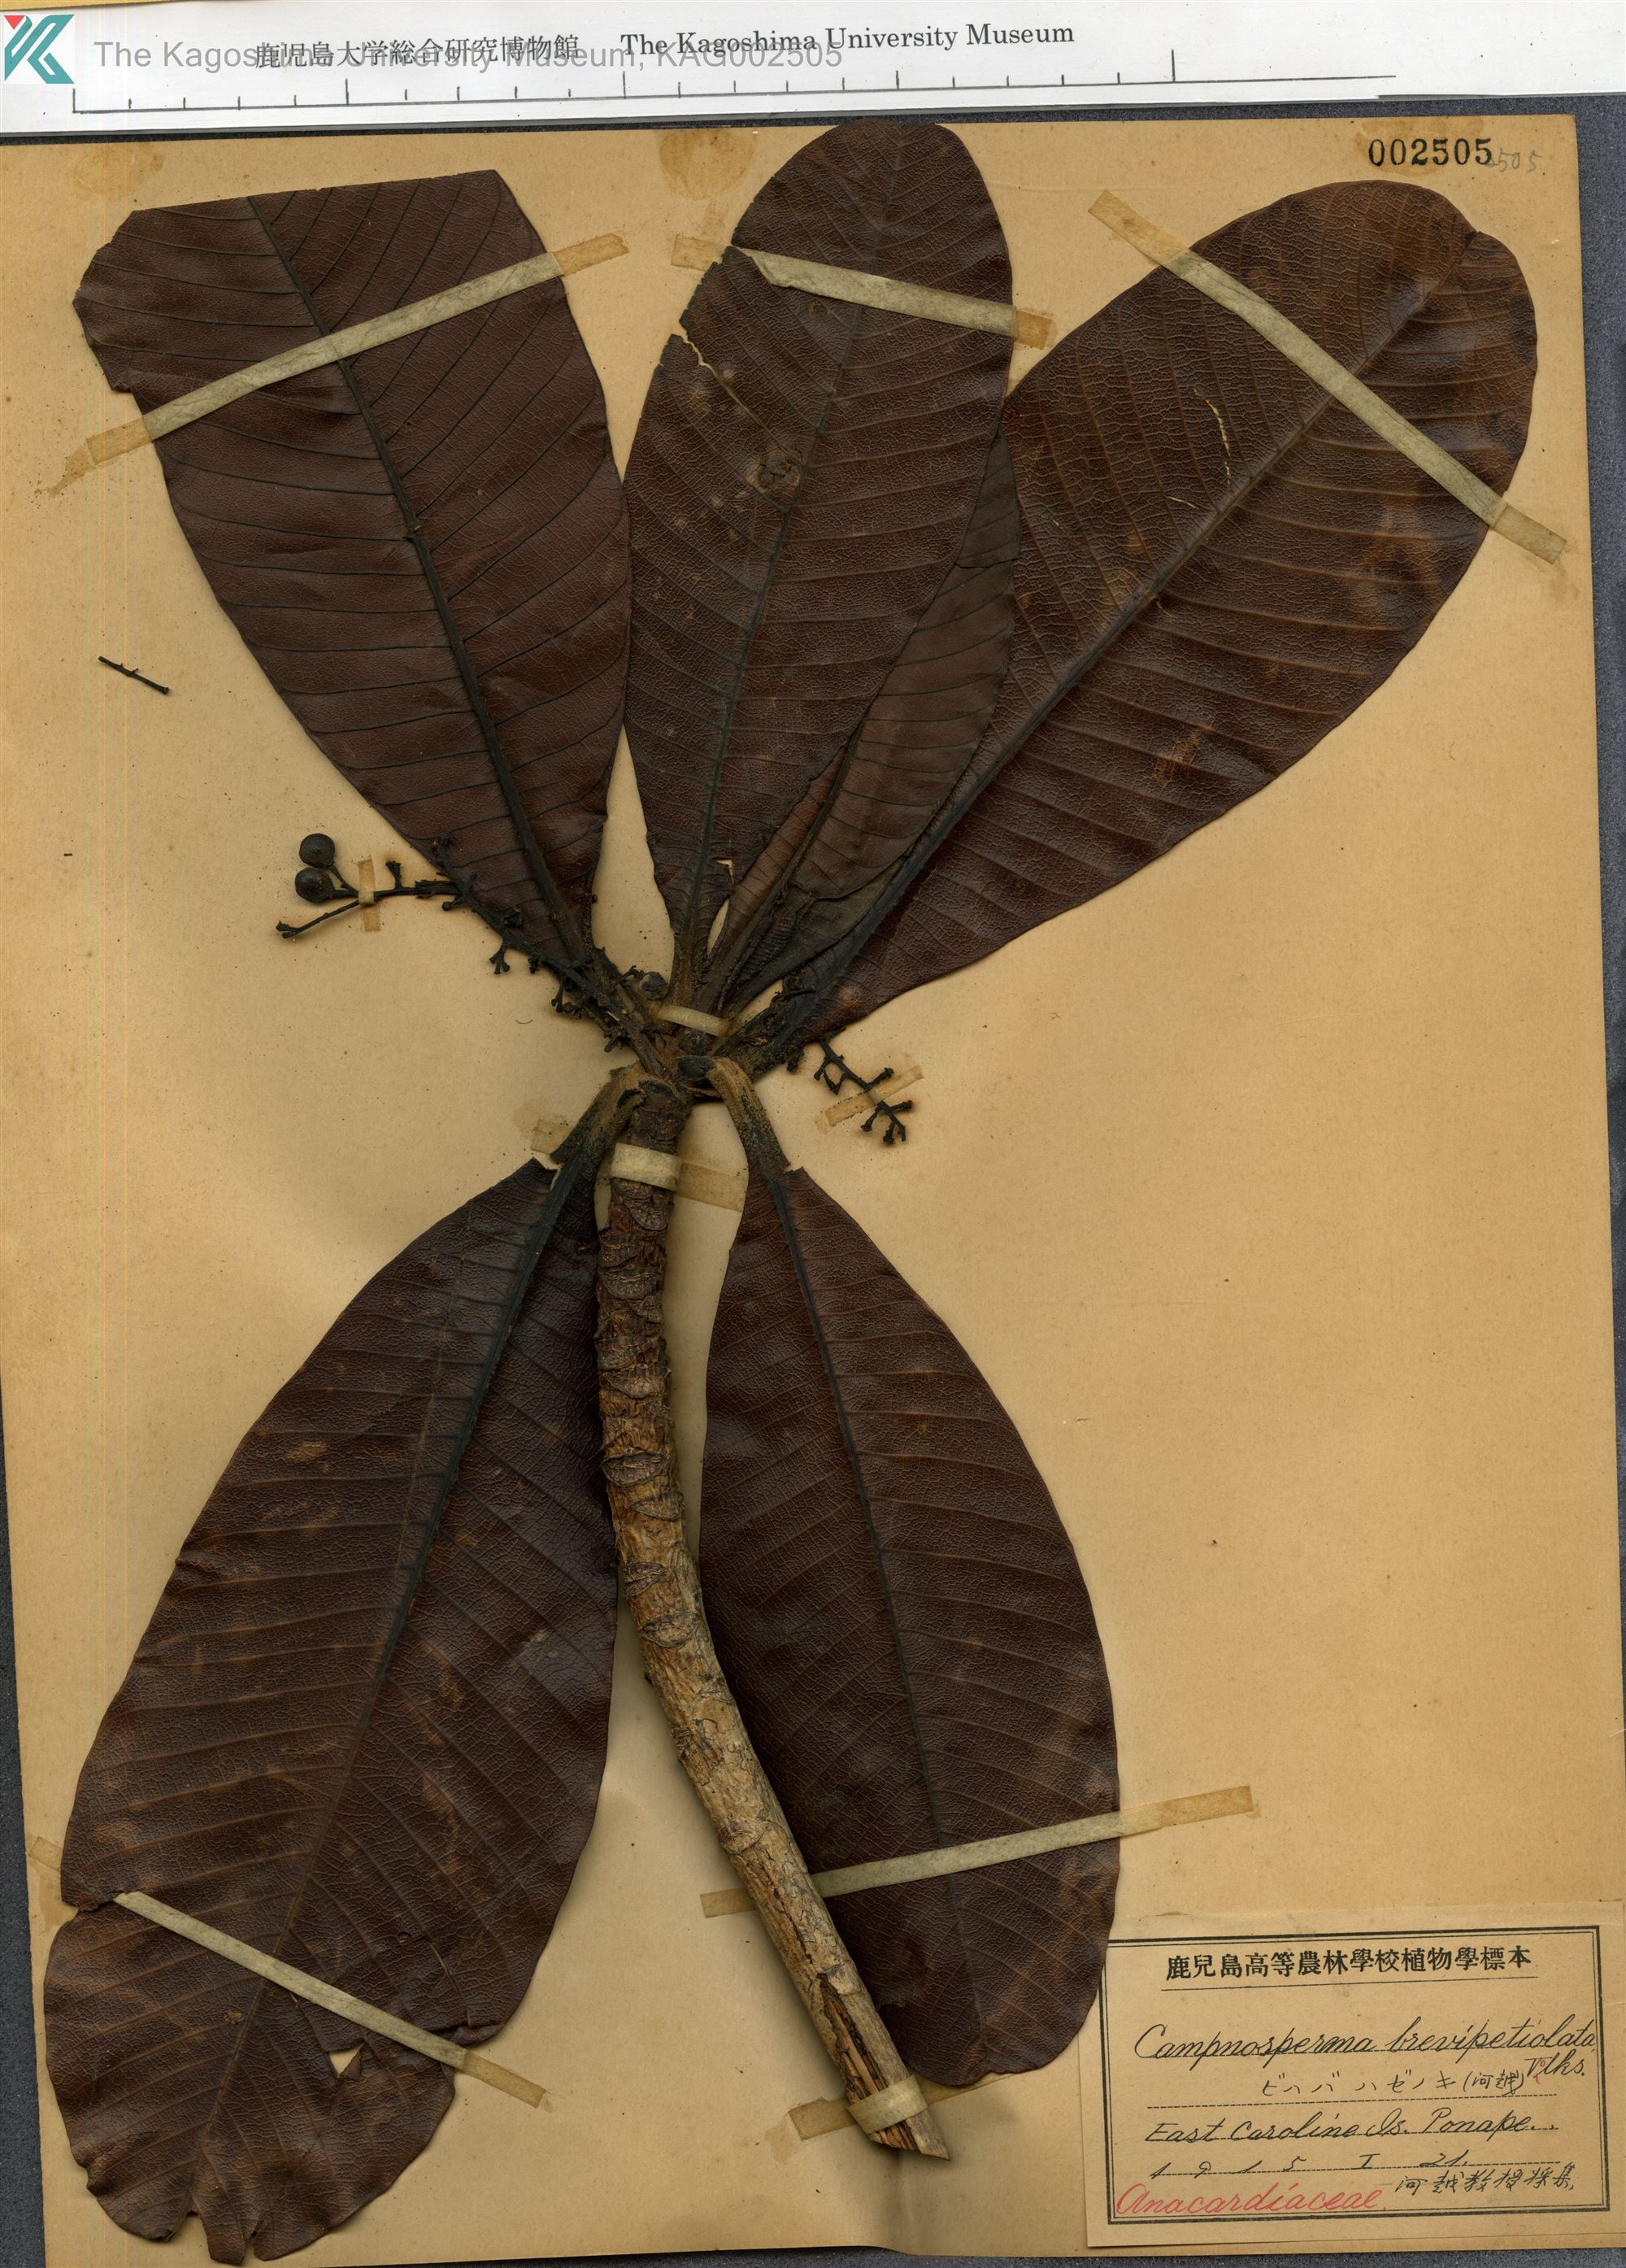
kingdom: Plantae
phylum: Tracheophyta
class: Magnoliopsida
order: Sapindales
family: Anacardiaceae
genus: Campnosperma
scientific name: Campnosperma brevipetiolatum
